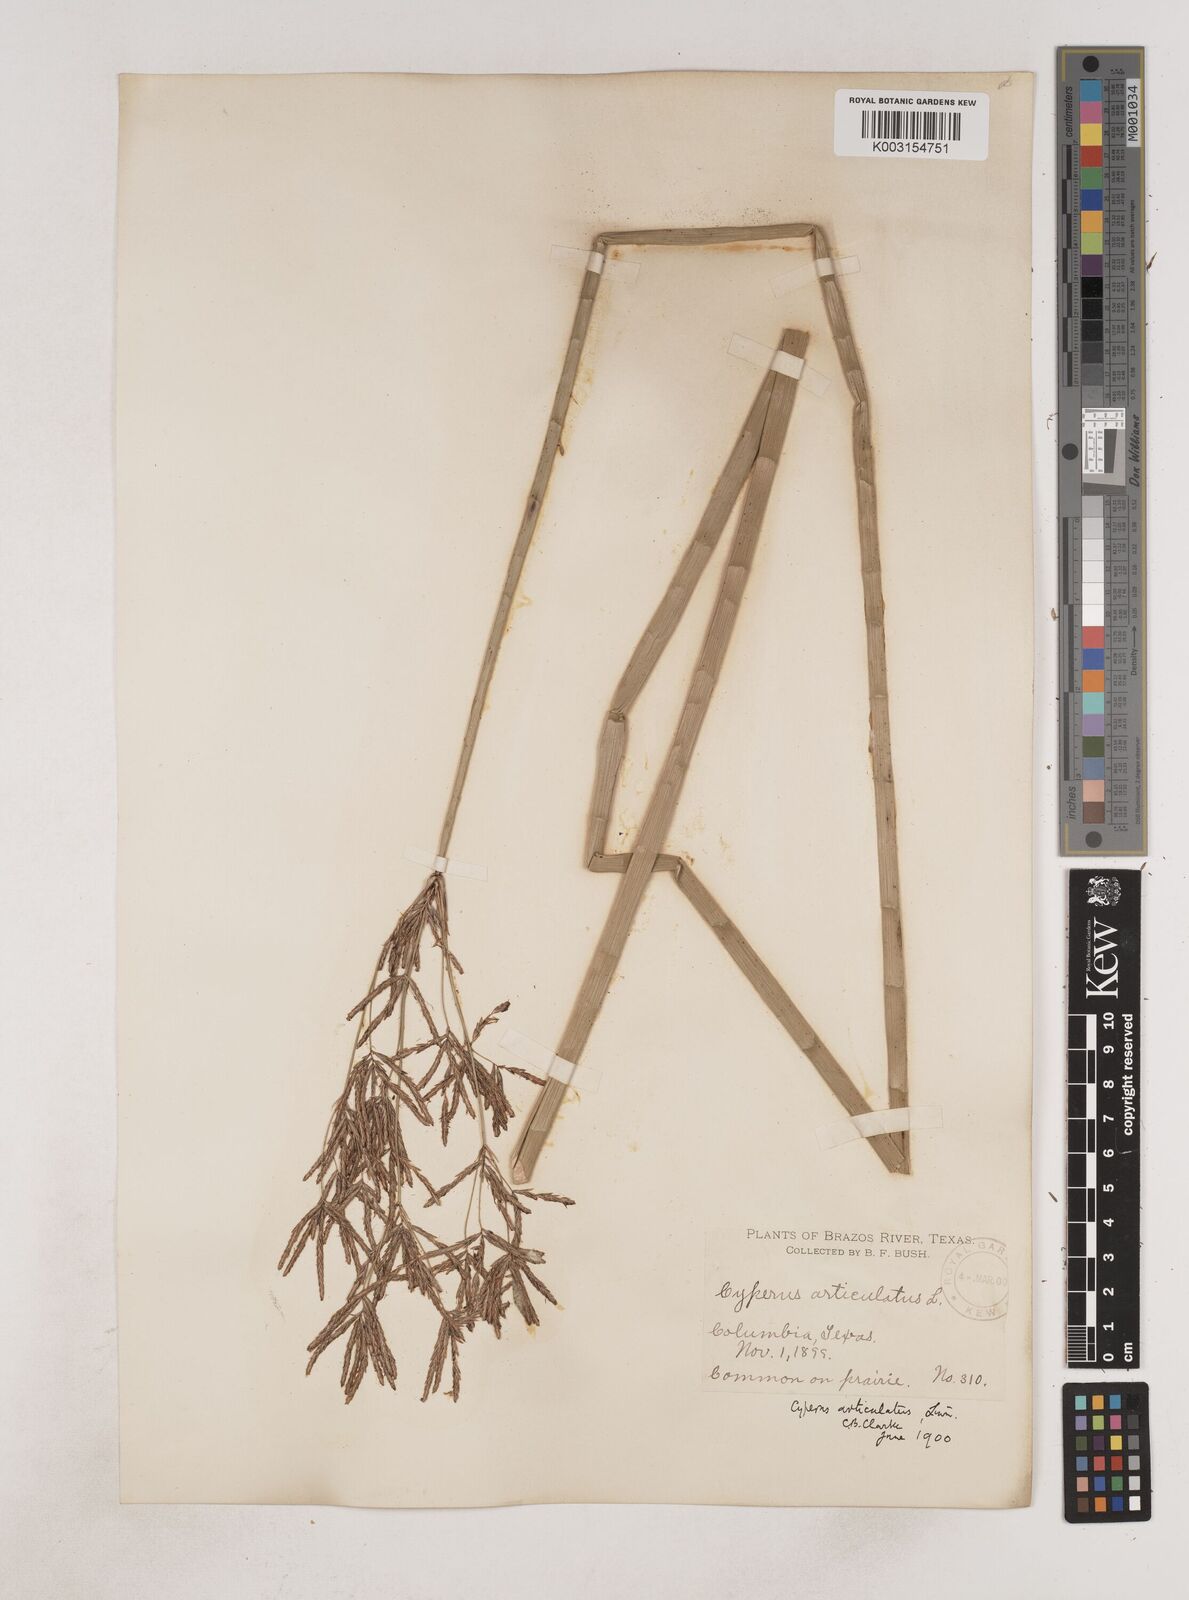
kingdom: Plantae
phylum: Tracheophyta
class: Liliopsida
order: Poales
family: Cyperaceae
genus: Cyperus
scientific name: Cyperus articulatus
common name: Jointed flatsedge
